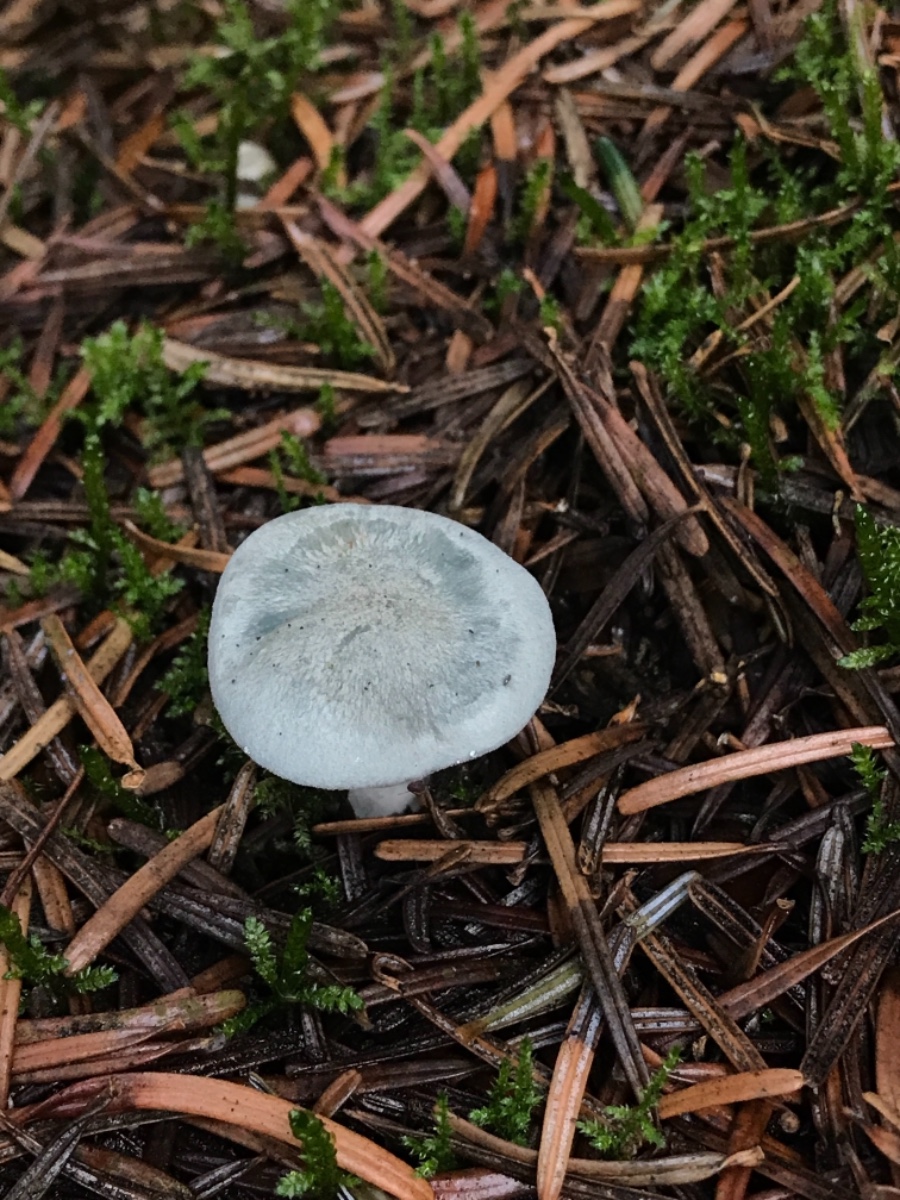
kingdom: Fungi
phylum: Basidiomycota
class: Agaricomycetes
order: Agaricales
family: Tricholomataceae
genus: Clitocybe
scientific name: Clitocybe odora
